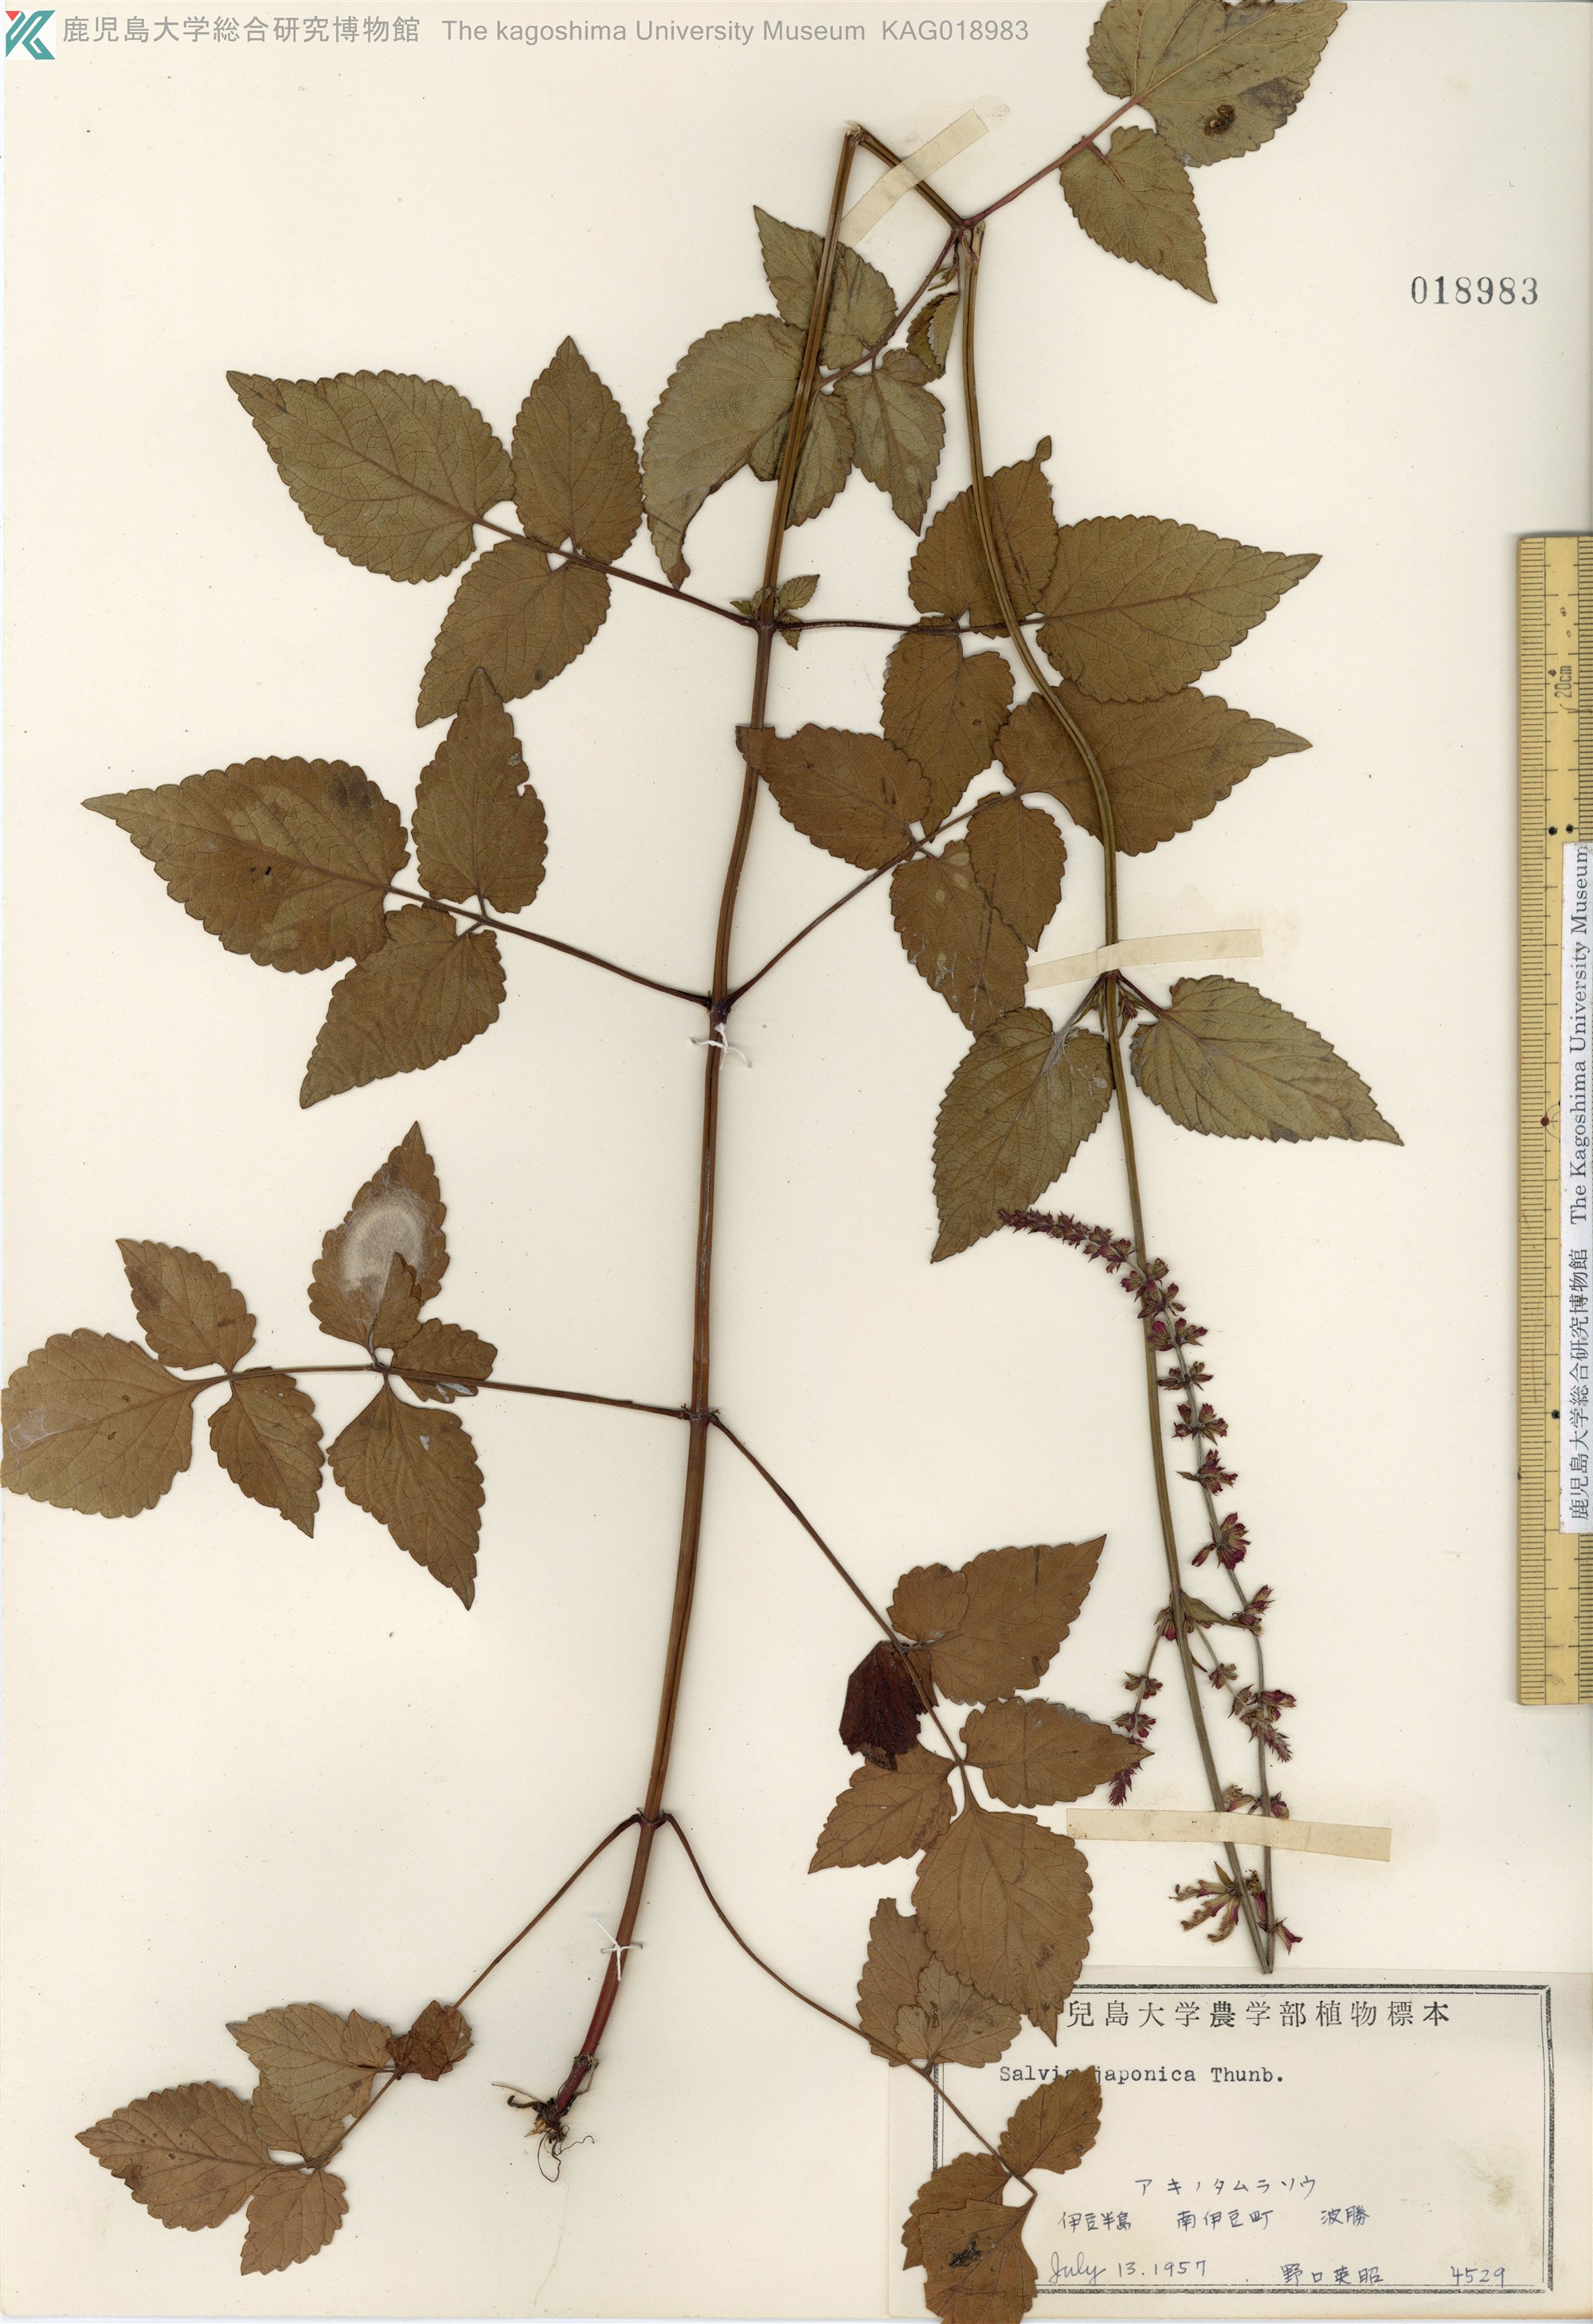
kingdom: Plantae
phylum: Tracheophyta
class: Magnoliopsida
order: Lamiales
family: Lamiaceae
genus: Salvia
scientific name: Salvia japonica
